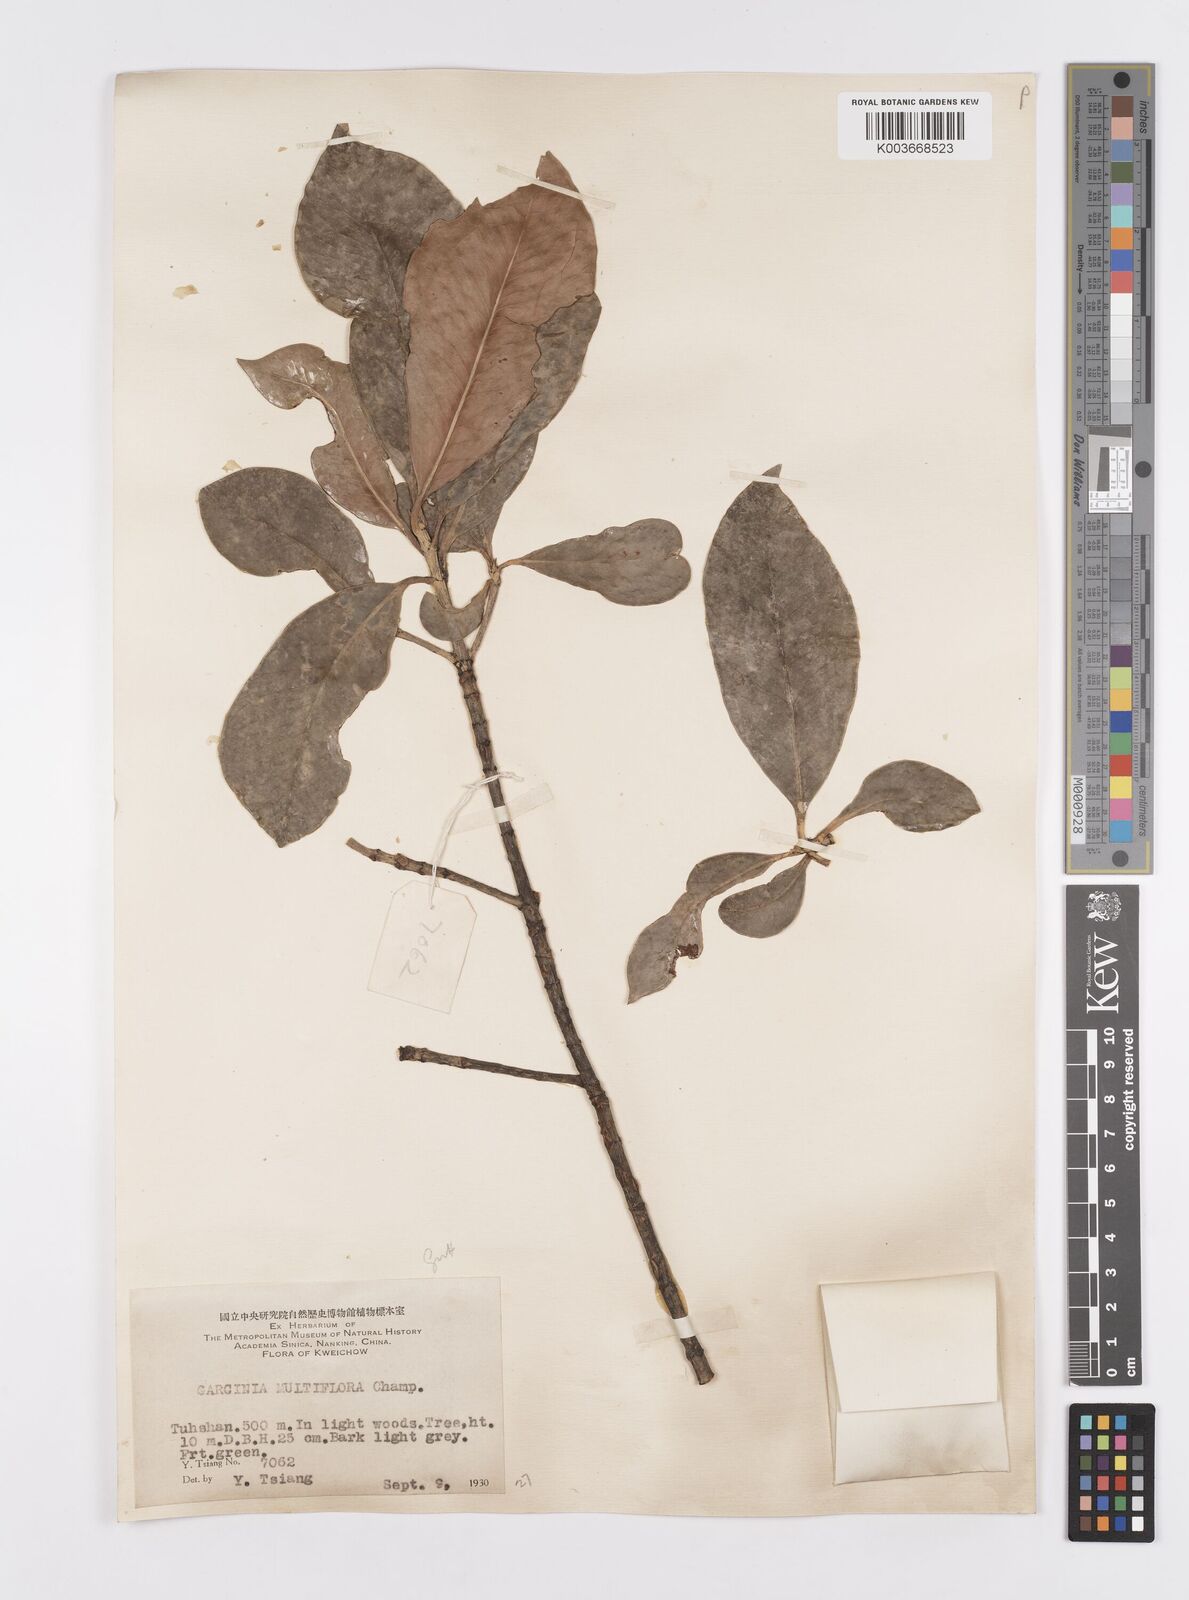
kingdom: Plantae
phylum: Tracheophyta
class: Magnoliopsida
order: Malpighiales
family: Clusiaceae
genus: Garcinia
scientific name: Garcinia multiflora
